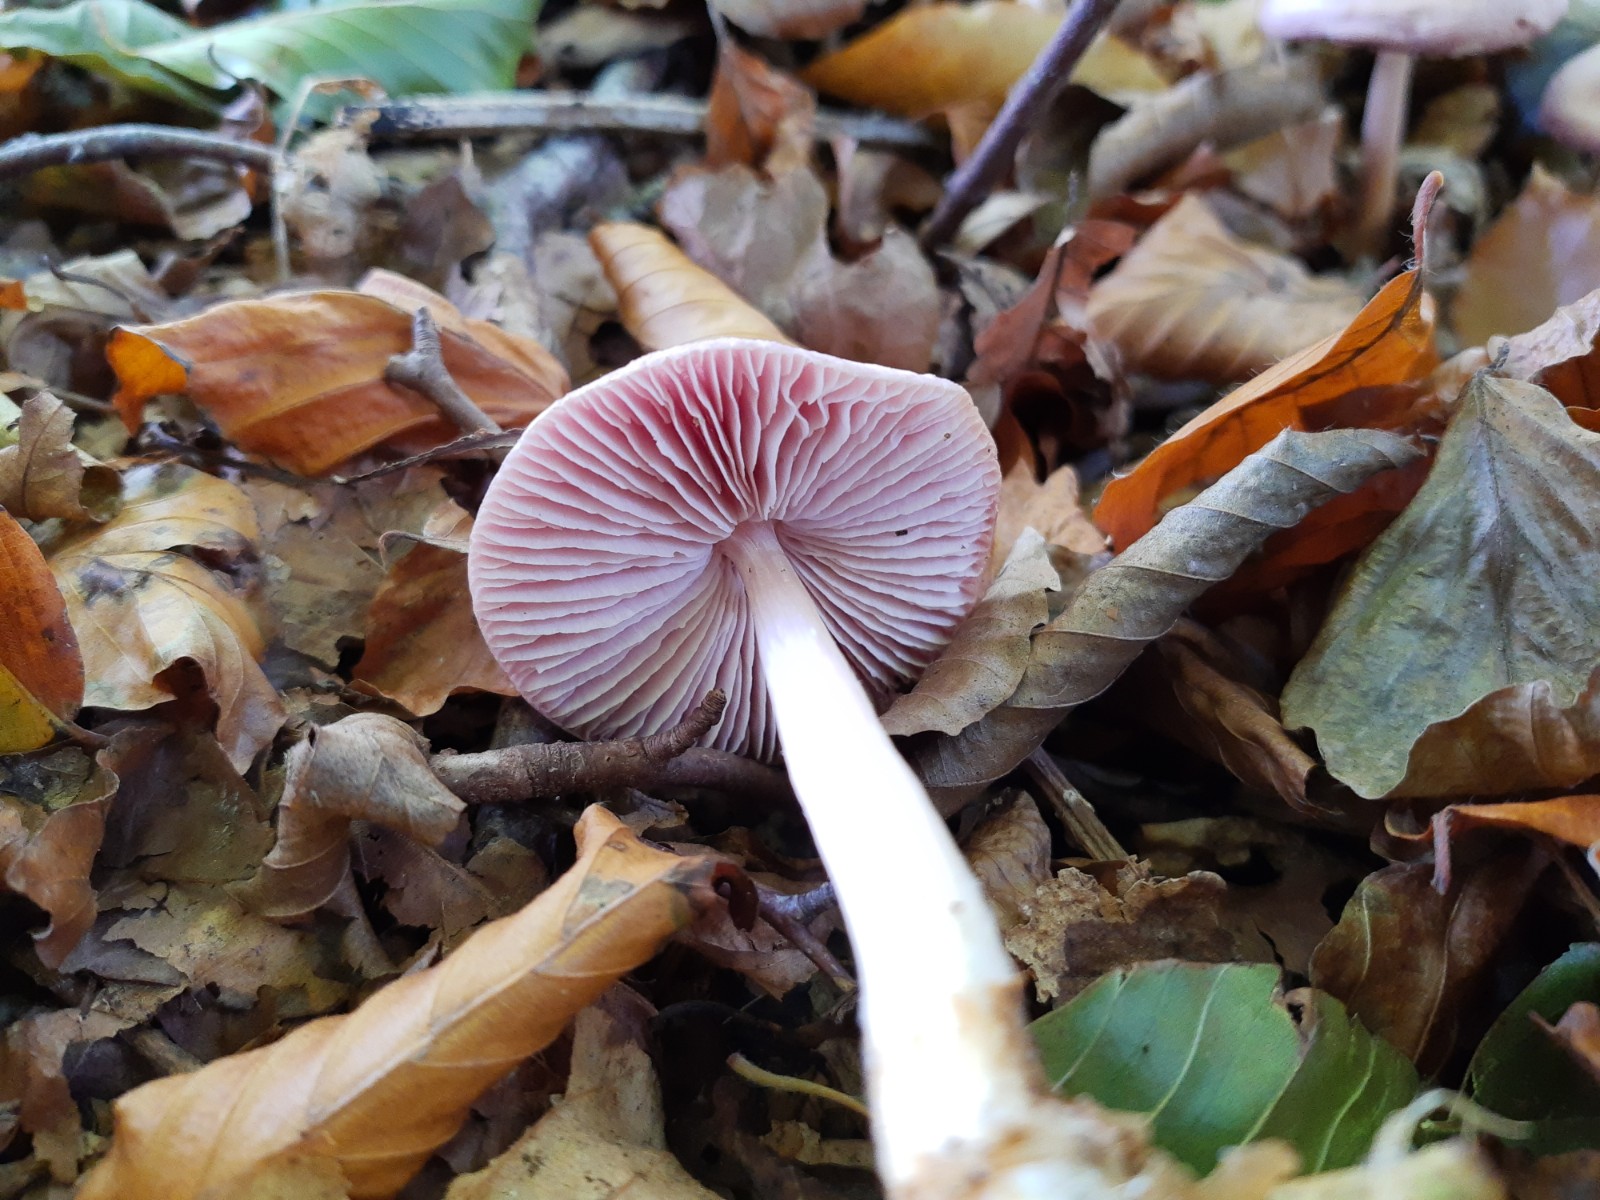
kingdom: Fungi
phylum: Basidiomycota
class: Agaricomycetes
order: Agaricales
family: Mycenaceae
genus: Mycena
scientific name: Mycena rosea
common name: rosa huesvamp
